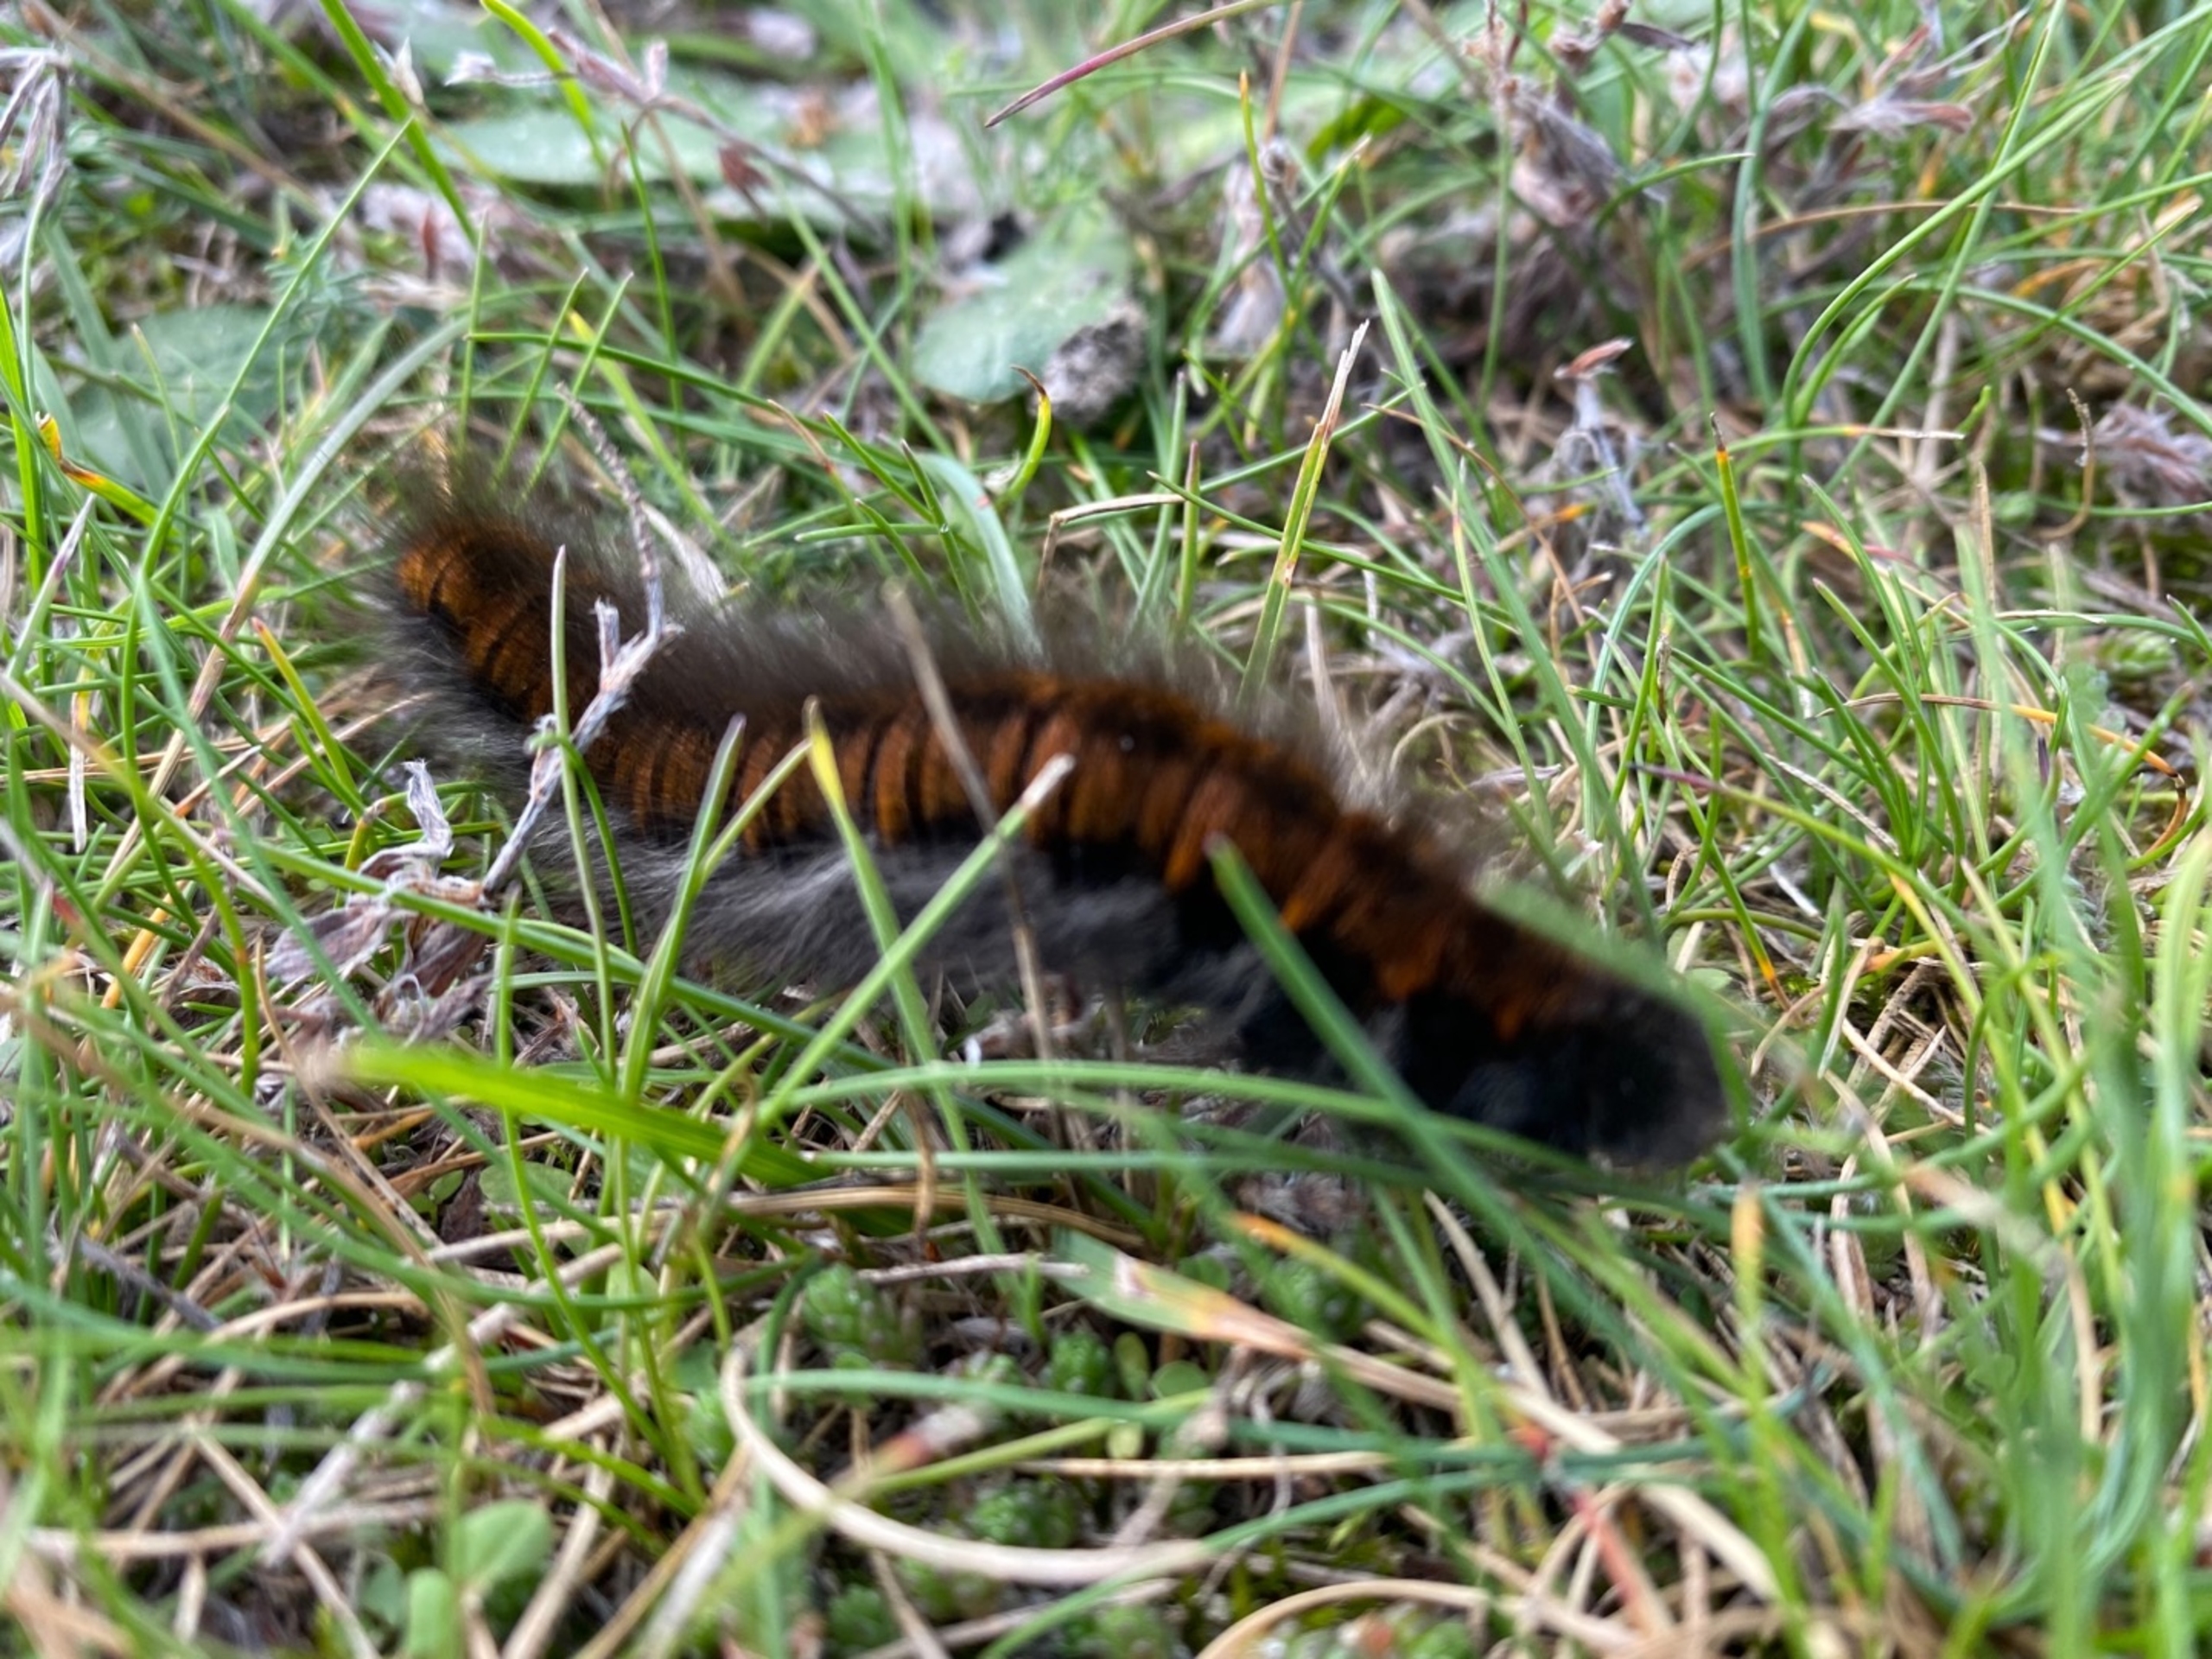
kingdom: Animalia
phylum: Arthropoda
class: Insecta
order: Lepidoptera
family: Lasiocampidae
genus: Macrothylacia
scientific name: Macrothylacia rubi
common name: Brombærspinder
